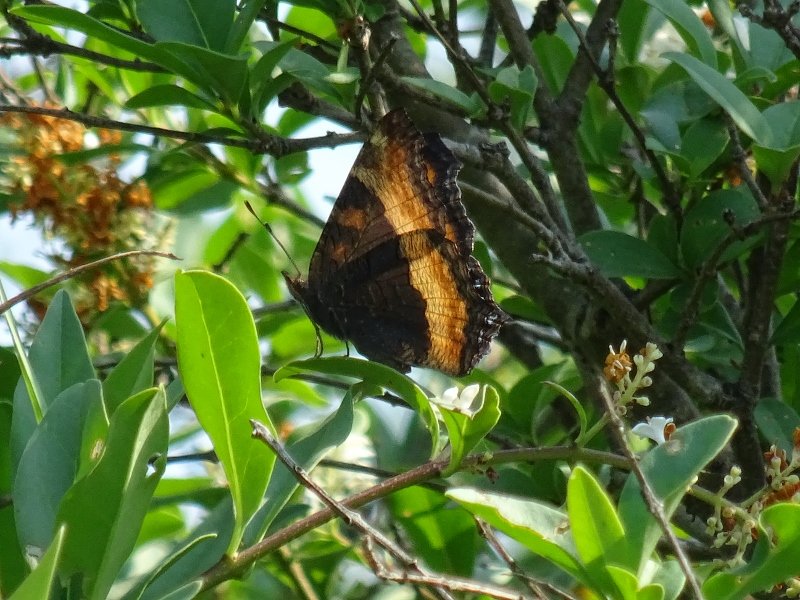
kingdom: Animalia
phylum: Arthropoda
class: Insecta
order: Lepidoptera
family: Nymphalidae
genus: Aglais
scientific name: Aglais milberti
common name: Milbert's Tortoiseshell
